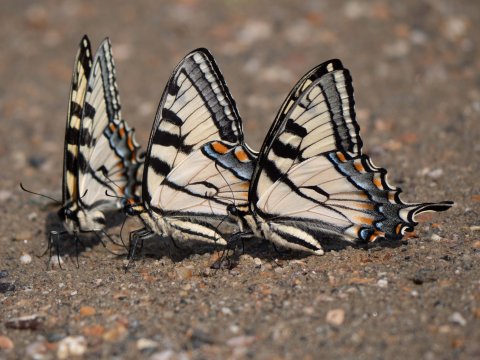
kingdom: Animalia
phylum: Arthropoda
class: Insecta
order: Lepidoptera
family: Papilionidae
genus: Pterourus
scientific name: Pterourus canadensis
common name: Canadian Tiger Swallowtail
